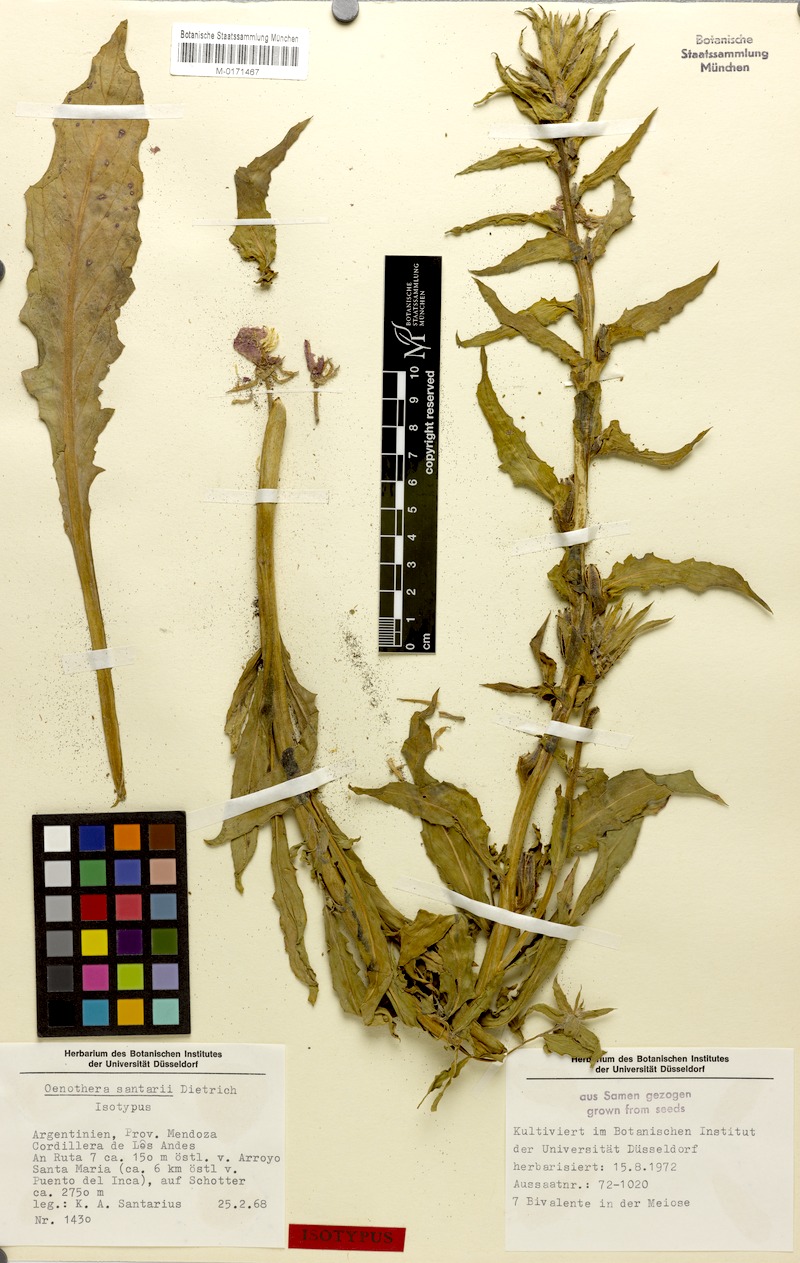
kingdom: Plantae
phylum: Tracheophyta
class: Magnoliopsida
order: Myrtales
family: Onagraceae
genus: Oenothera
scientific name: Oenothera santarii
